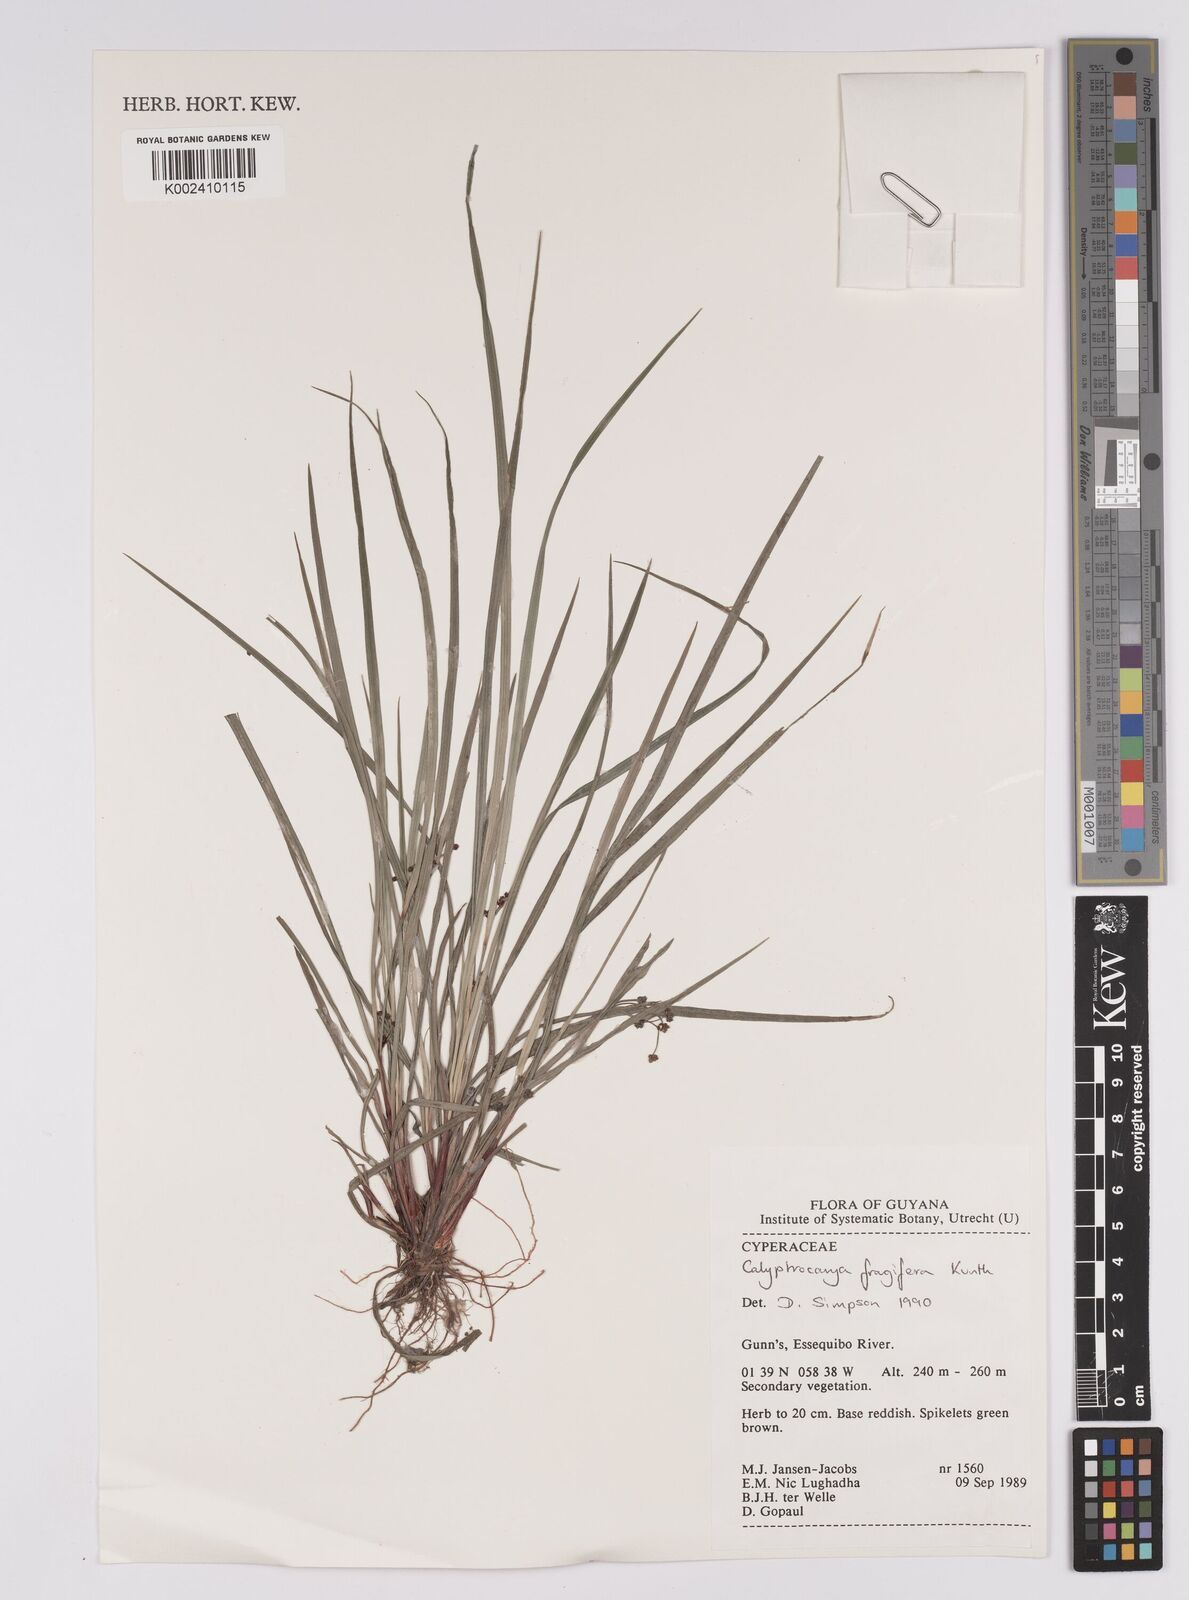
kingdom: Plantae
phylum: Tracheophyta
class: Liliopsida
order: Poales
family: Cyperaceae
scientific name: Cyperaceae
